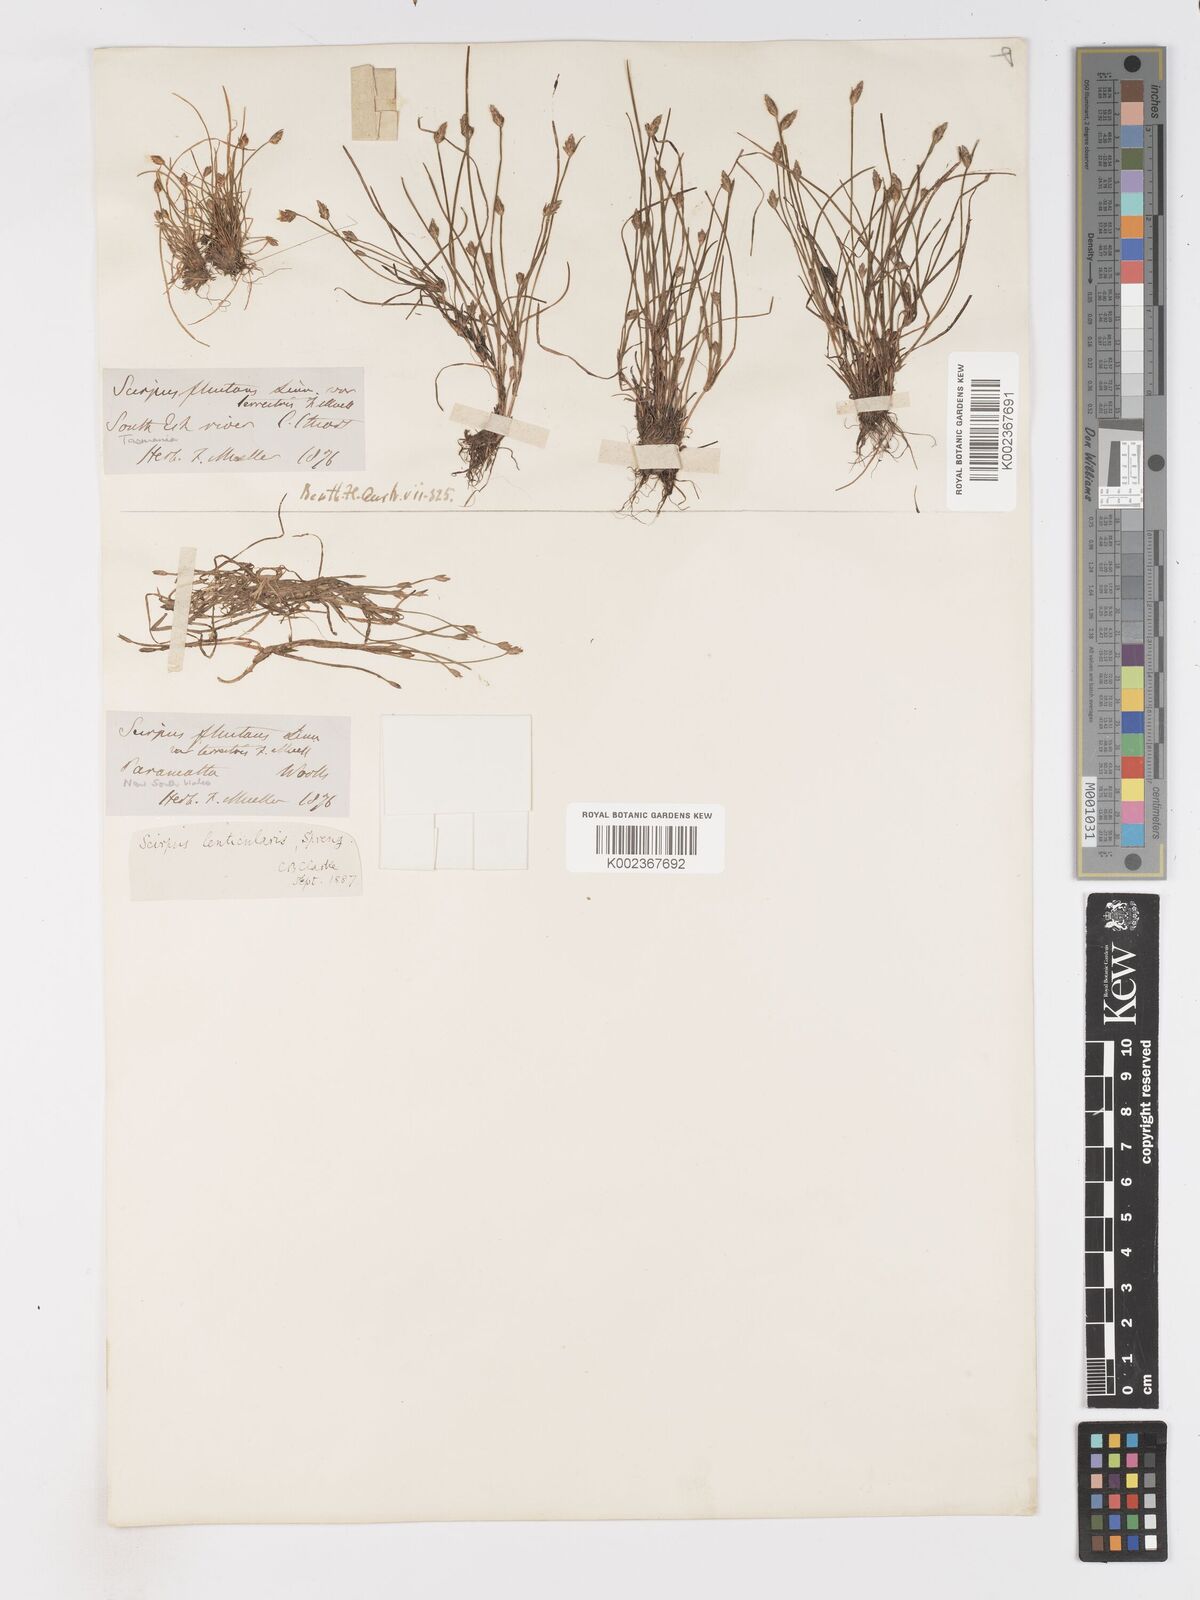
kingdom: Plantae
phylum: Tracheophyta
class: Liliopsida
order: Poales
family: Cyperaceae
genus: Isolepis
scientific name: Isolepis fluitans
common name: Floating club-rush
